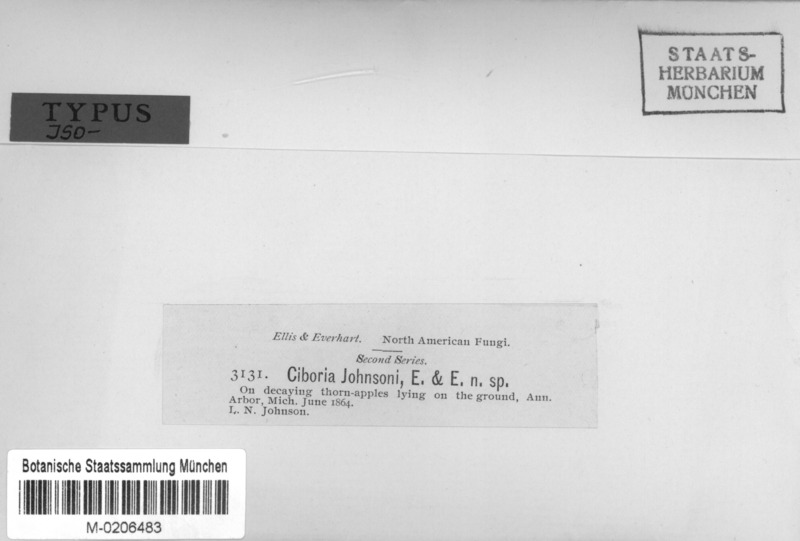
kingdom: Fungi
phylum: Ascomycota
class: Leotiomycetes
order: Helotiales
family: Sclerotiniaceae
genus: Monilinia
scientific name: Monilinia johnsonii
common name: Haw goblet
